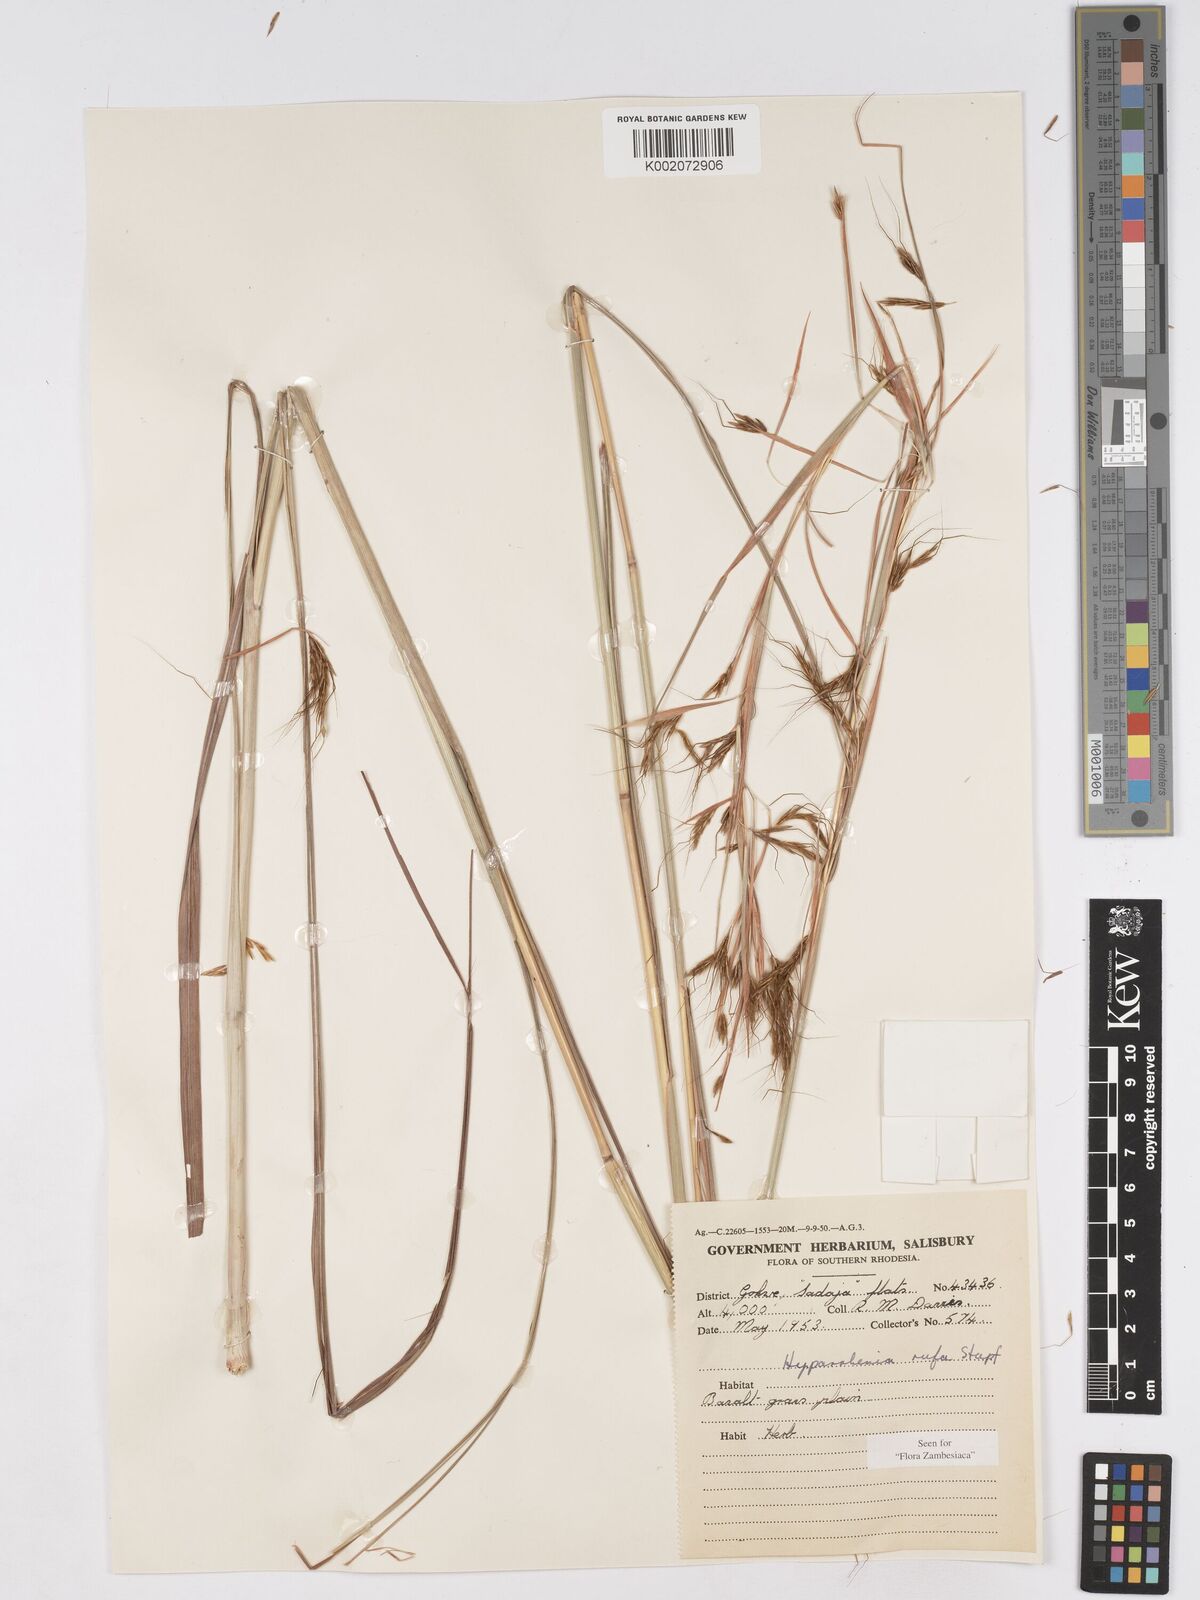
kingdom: Plantae
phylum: Tracheophyta
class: Liliopsida
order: Poales
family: Poaceae
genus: Hyparrhenia
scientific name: Hyparrhenia rufa
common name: Jaraguagrass
